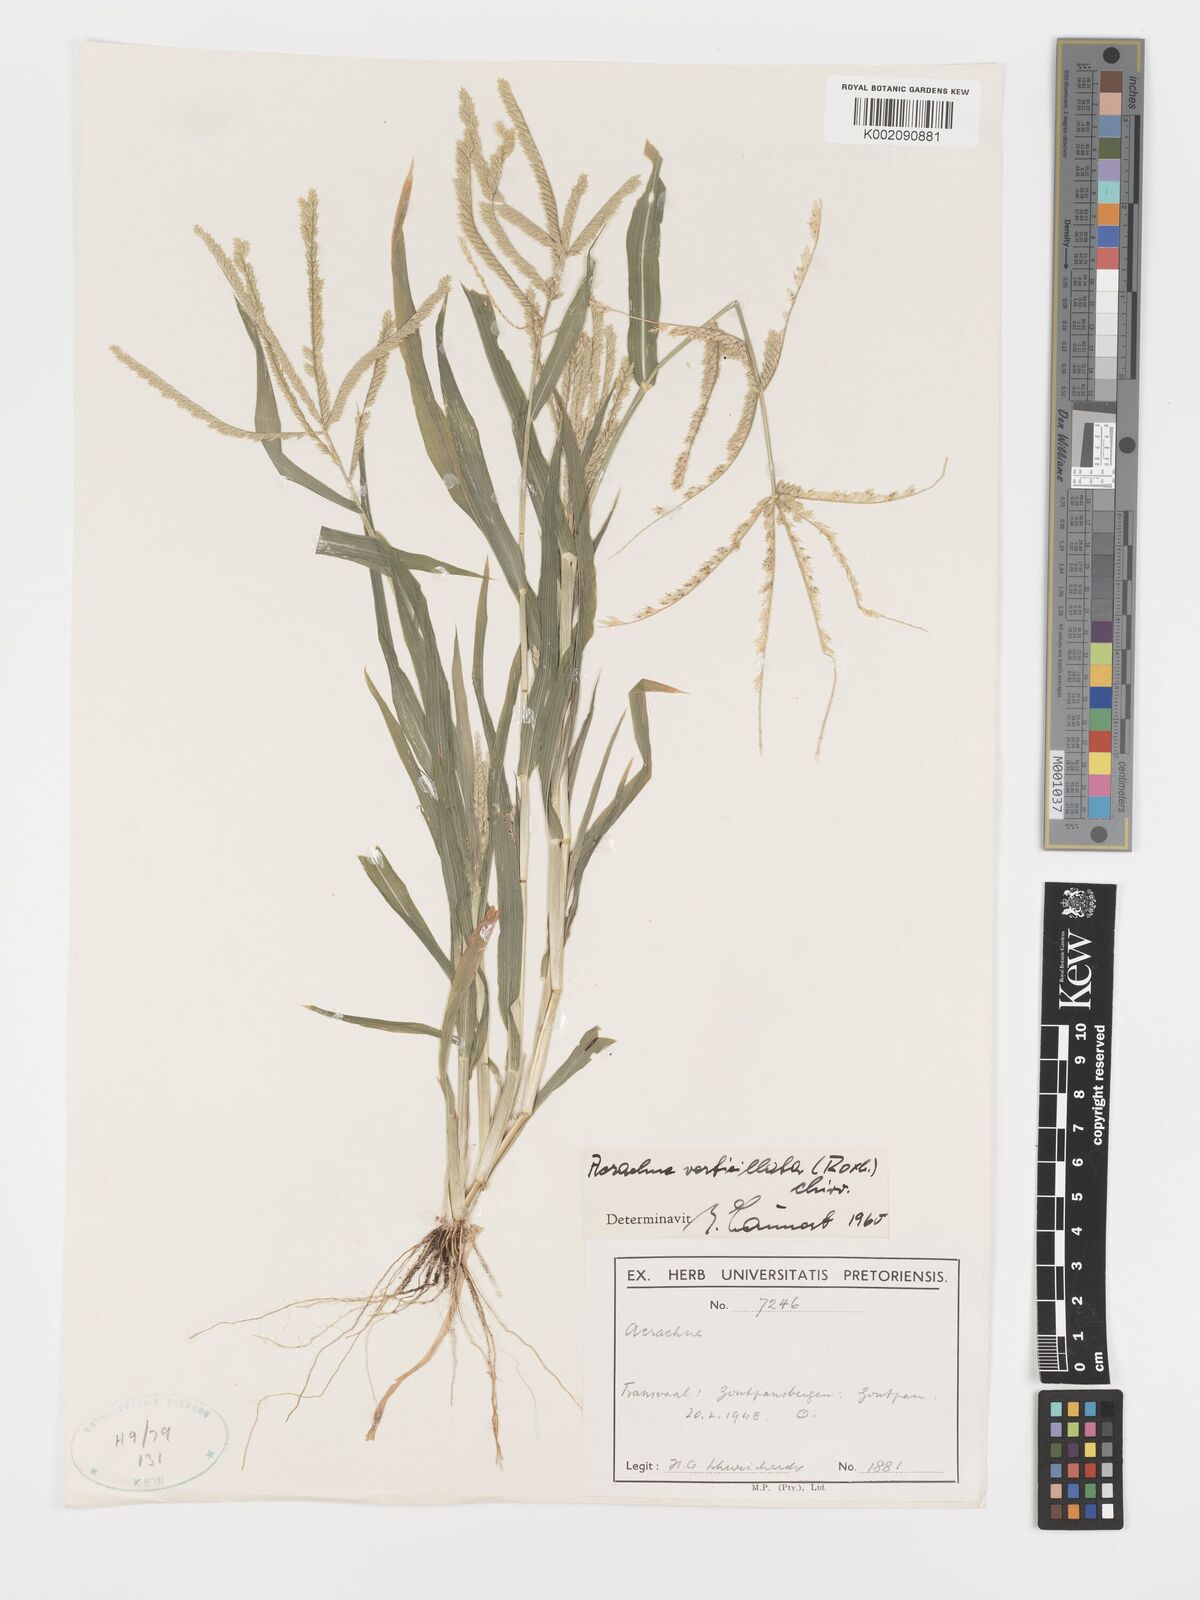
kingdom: Plantae
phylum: Tracheophyta
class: Liliopsida
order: Poales
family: Poaceae
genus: Acrachne
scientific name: Acrachne racemosa
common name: Goosegrass
